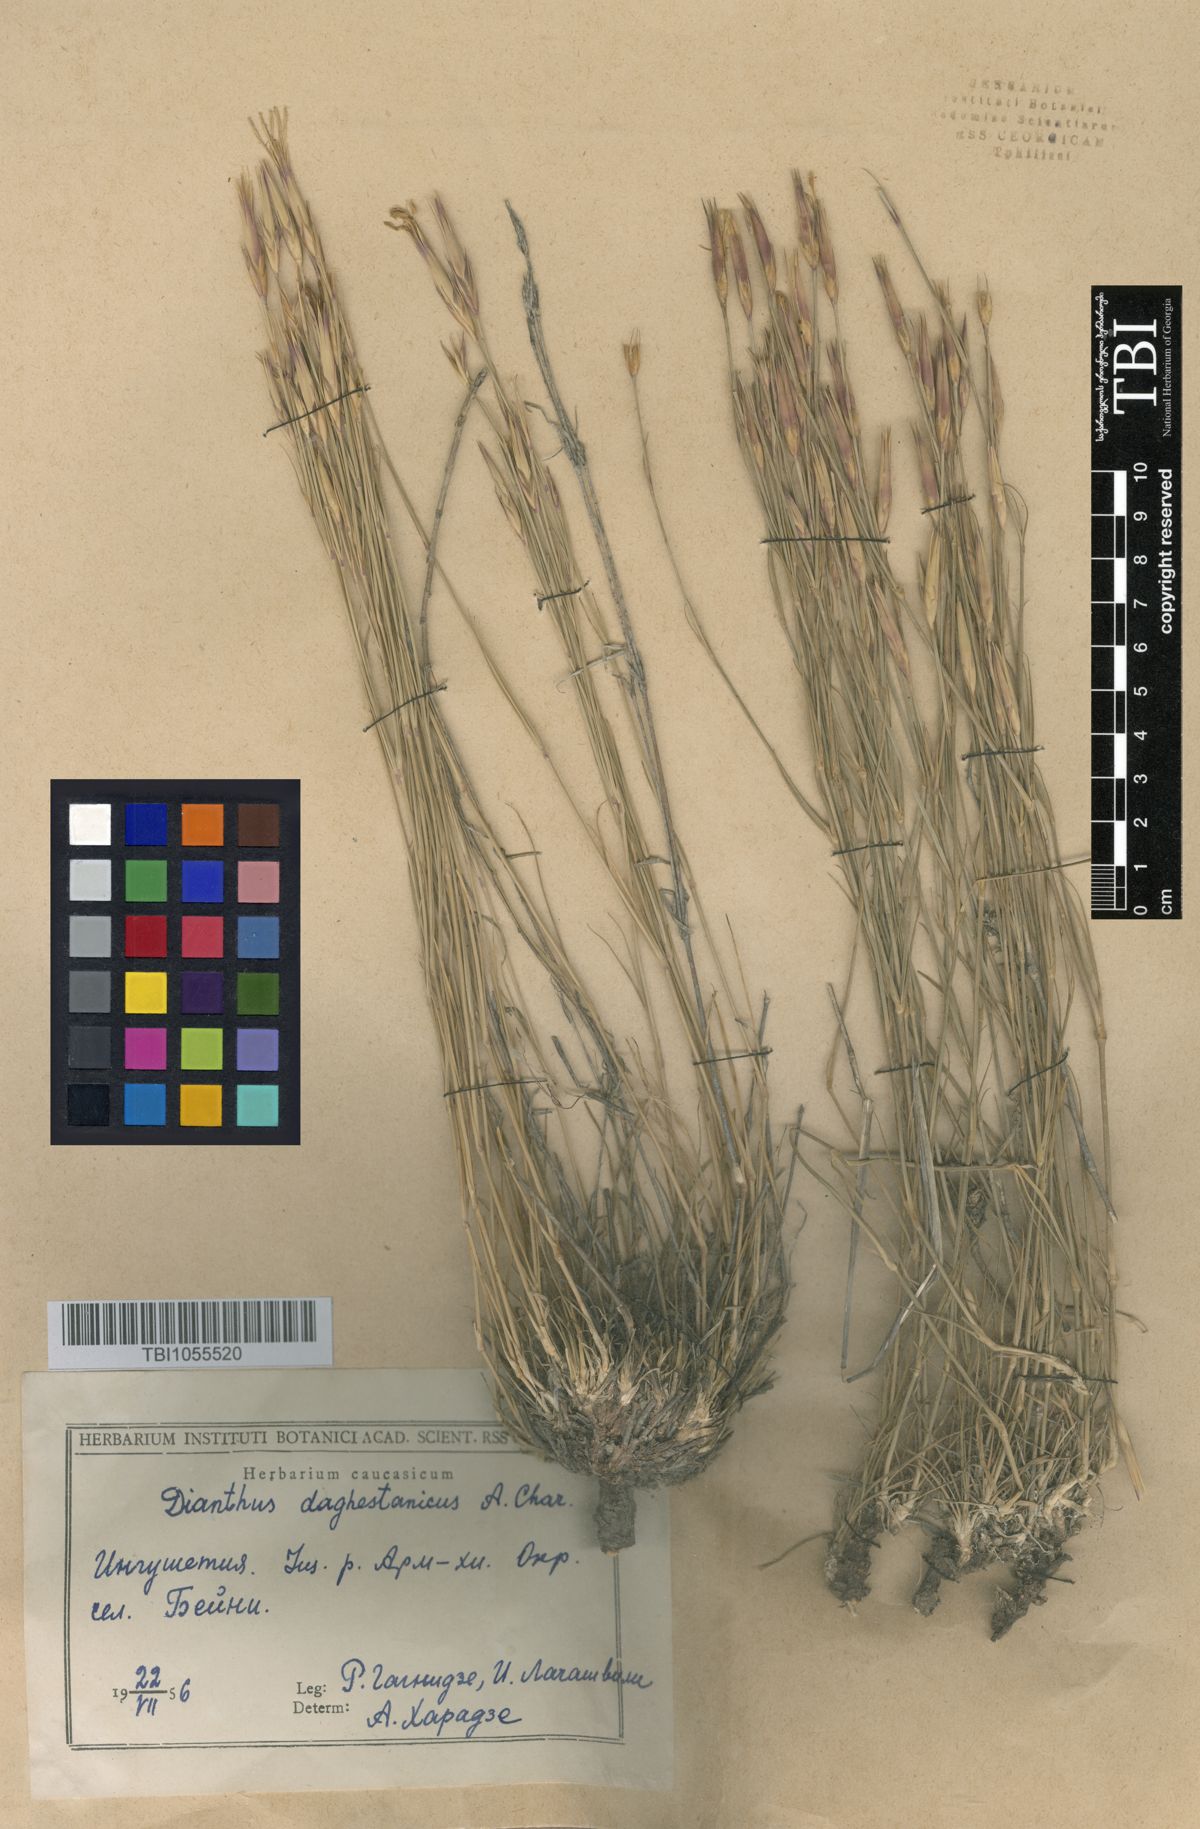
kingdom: Plantae
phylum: Tracheophyta
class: Magnoliopsida
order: Caryophyllales
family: Caryophyllaceae
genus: Dianthus
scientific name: Dianthus daghestanicus
